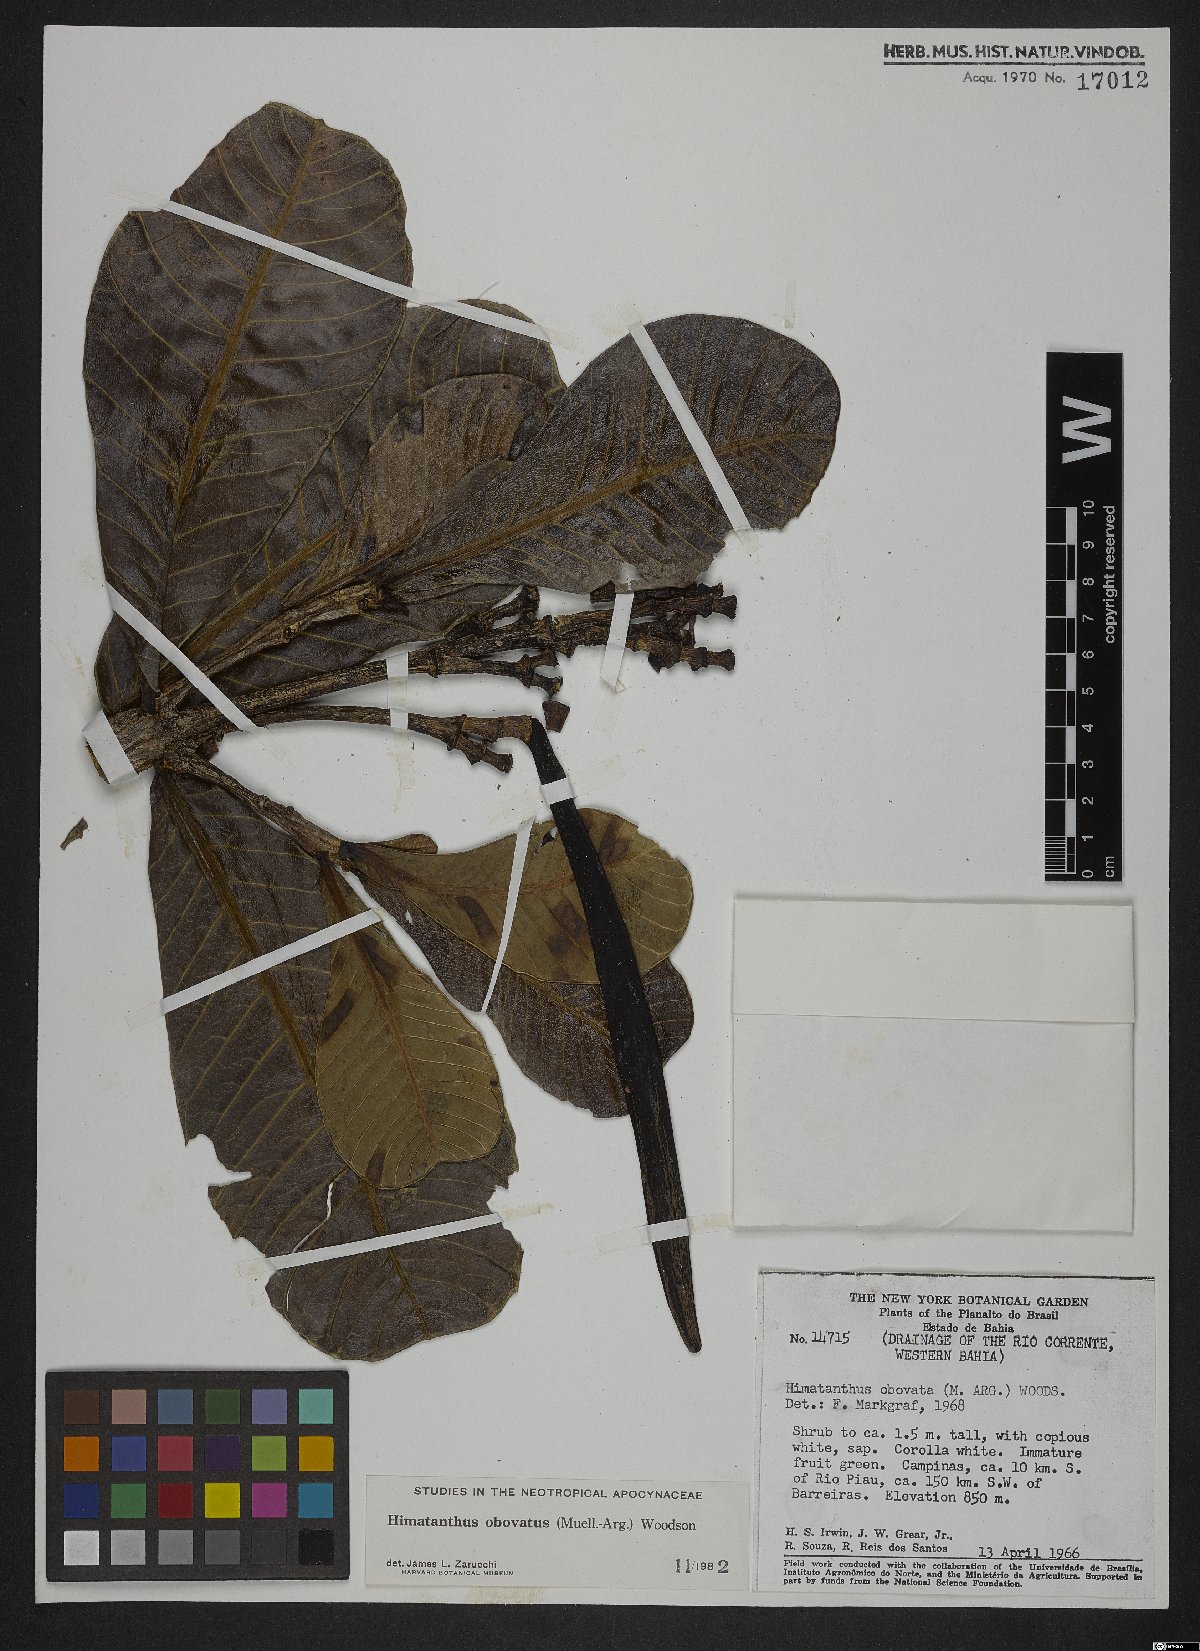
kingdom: Plantae
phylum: Tracheophyta
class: Magnoliopsida
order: Gentianales
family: Apocynaceae
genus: Himatanthus
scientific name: Himatanthus obovatus
